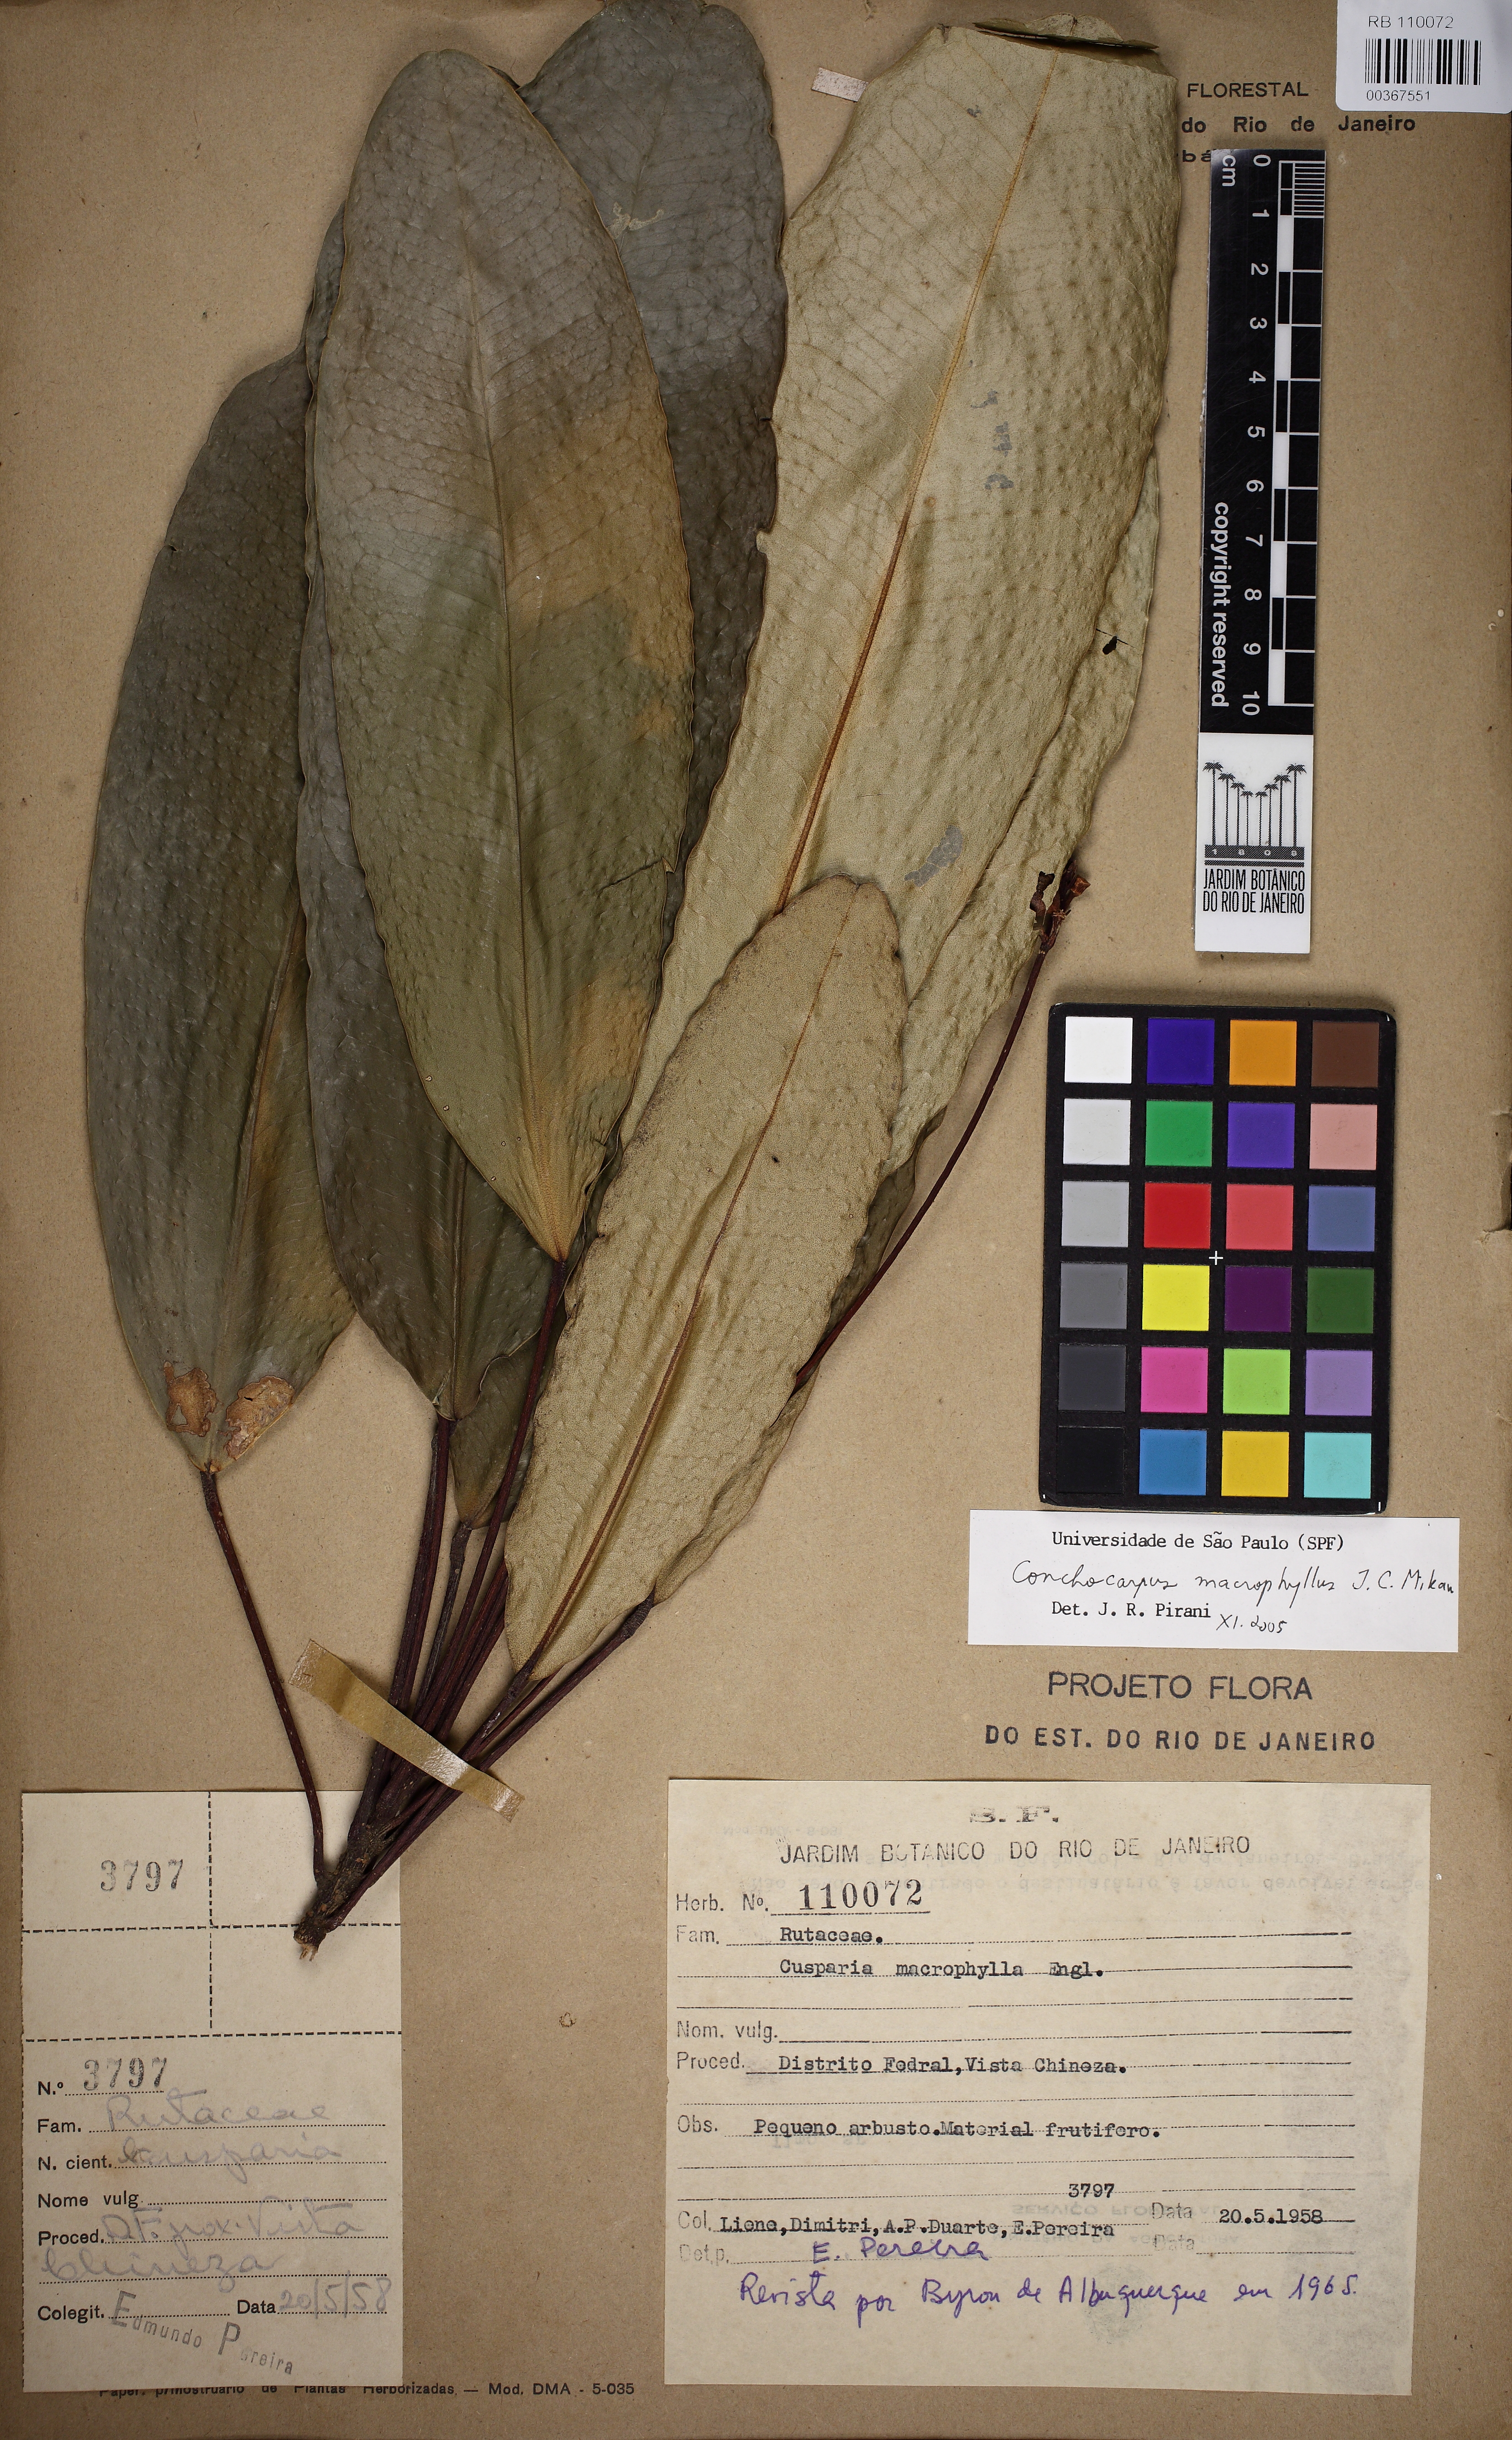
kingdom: Plantae
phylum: Tracheophyta
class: Magnoliopsida
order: Sapindales
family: Rutaceae
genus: Conchocarpus
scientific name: Conchocarpus macrophyllus
